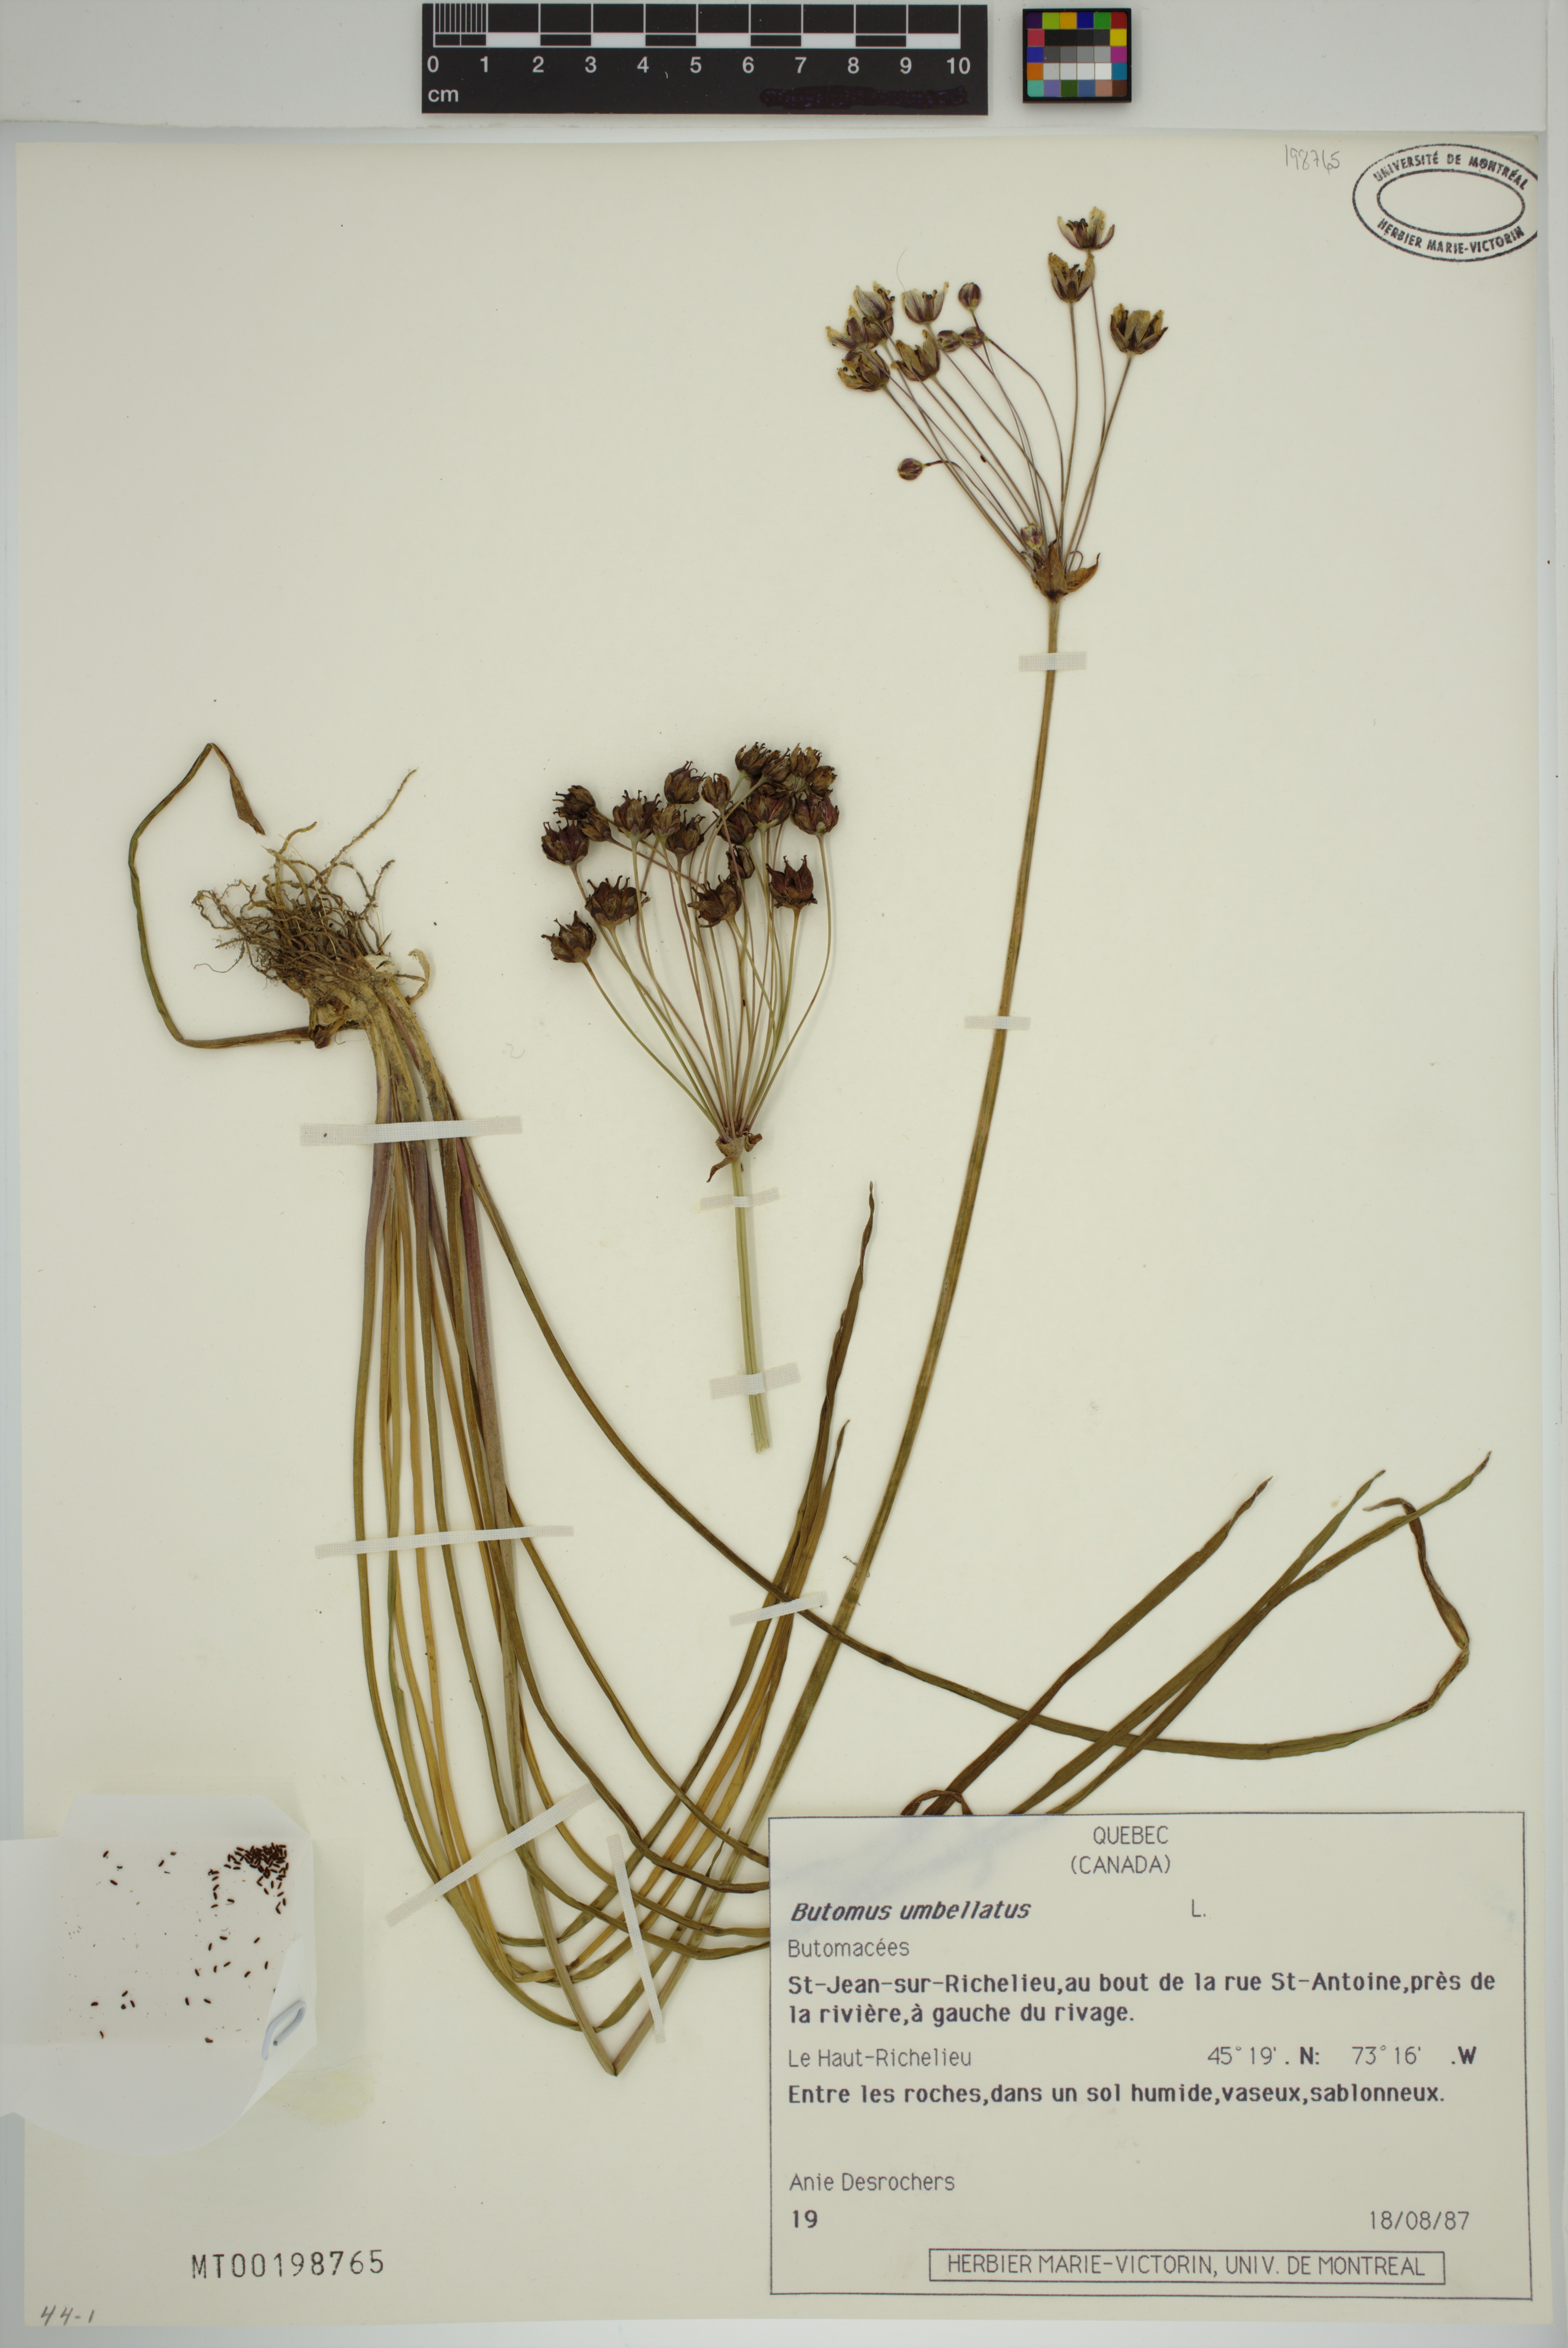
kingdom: Plantae
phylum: Tracheophyta
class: Liliopsida
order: Alismatales
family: Butomaceae
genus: Butomus
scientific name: Butomus umbellatus
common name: Flowering-rush
